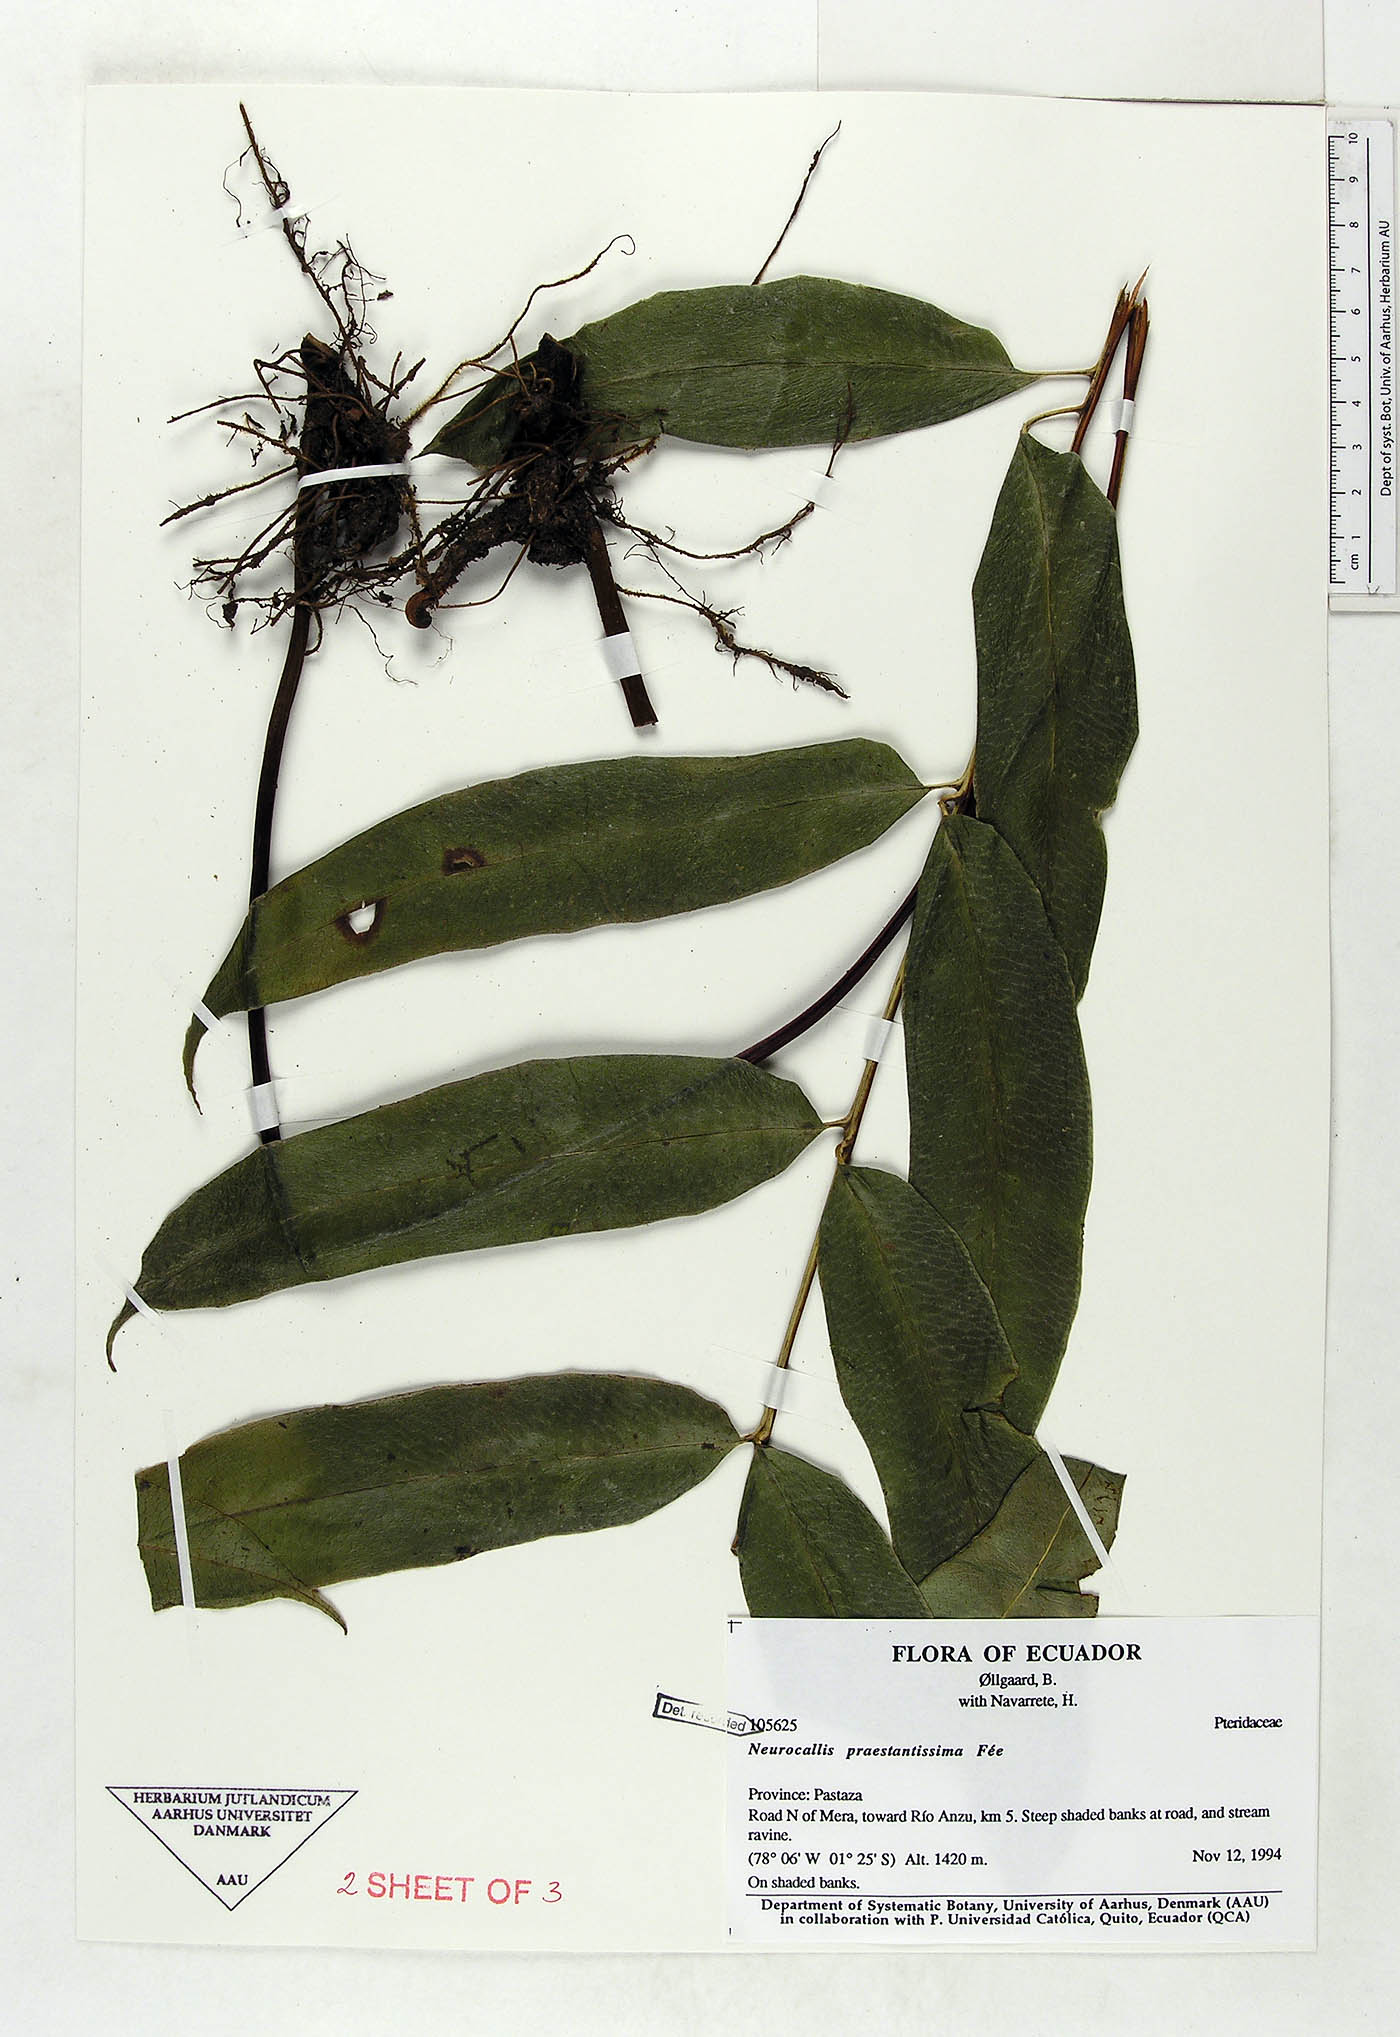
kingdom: Plantae
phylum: Tracheophyta
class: Polypodiopsida
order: Polypodiales
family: Pteridaceae
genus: Pteris
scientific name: Pteris praestantissima
